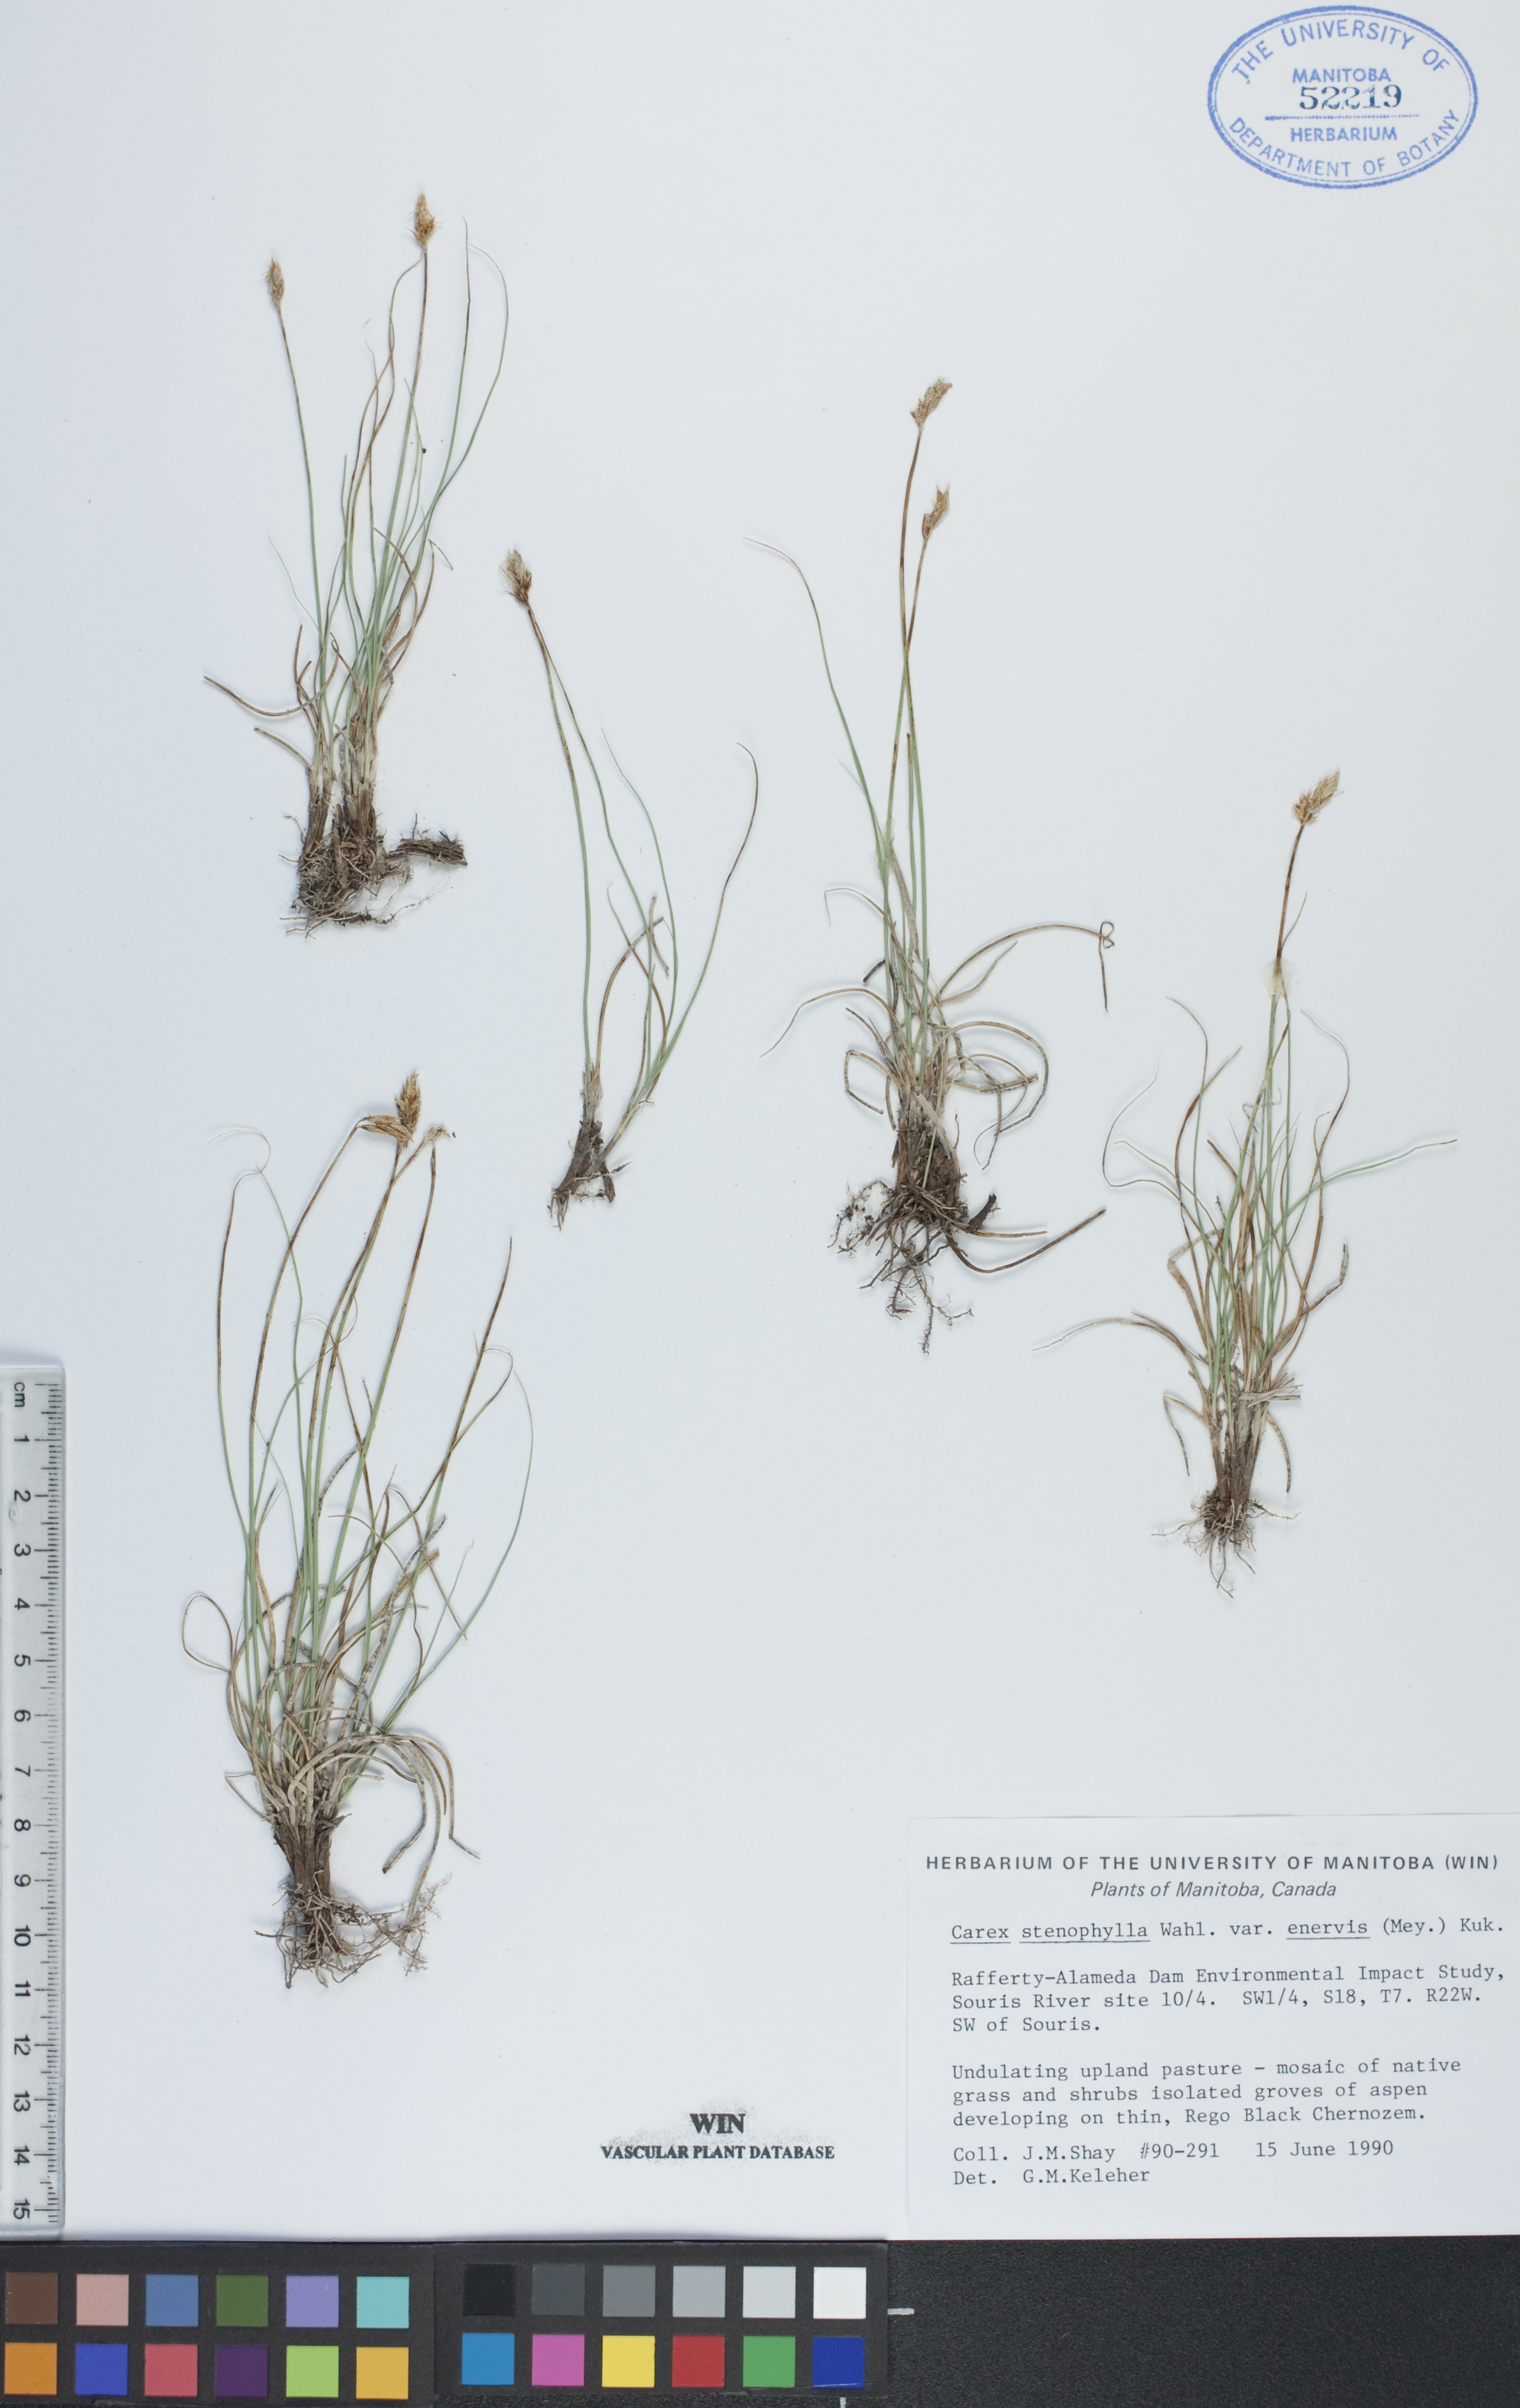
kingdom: Plantae
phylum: Tracheophyta
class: Liliopsida
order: Poales
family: Cyperaceae
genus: Carex
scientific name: Carex enervis
